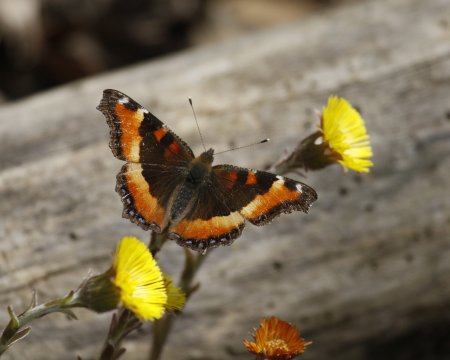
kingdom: Animalia
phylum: Arthropoda
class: Insecta
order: Lepidoptera
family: Nymphalidae
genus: Aglais
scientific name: Aglais milberti
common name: Milbert's Tortoiseshell
